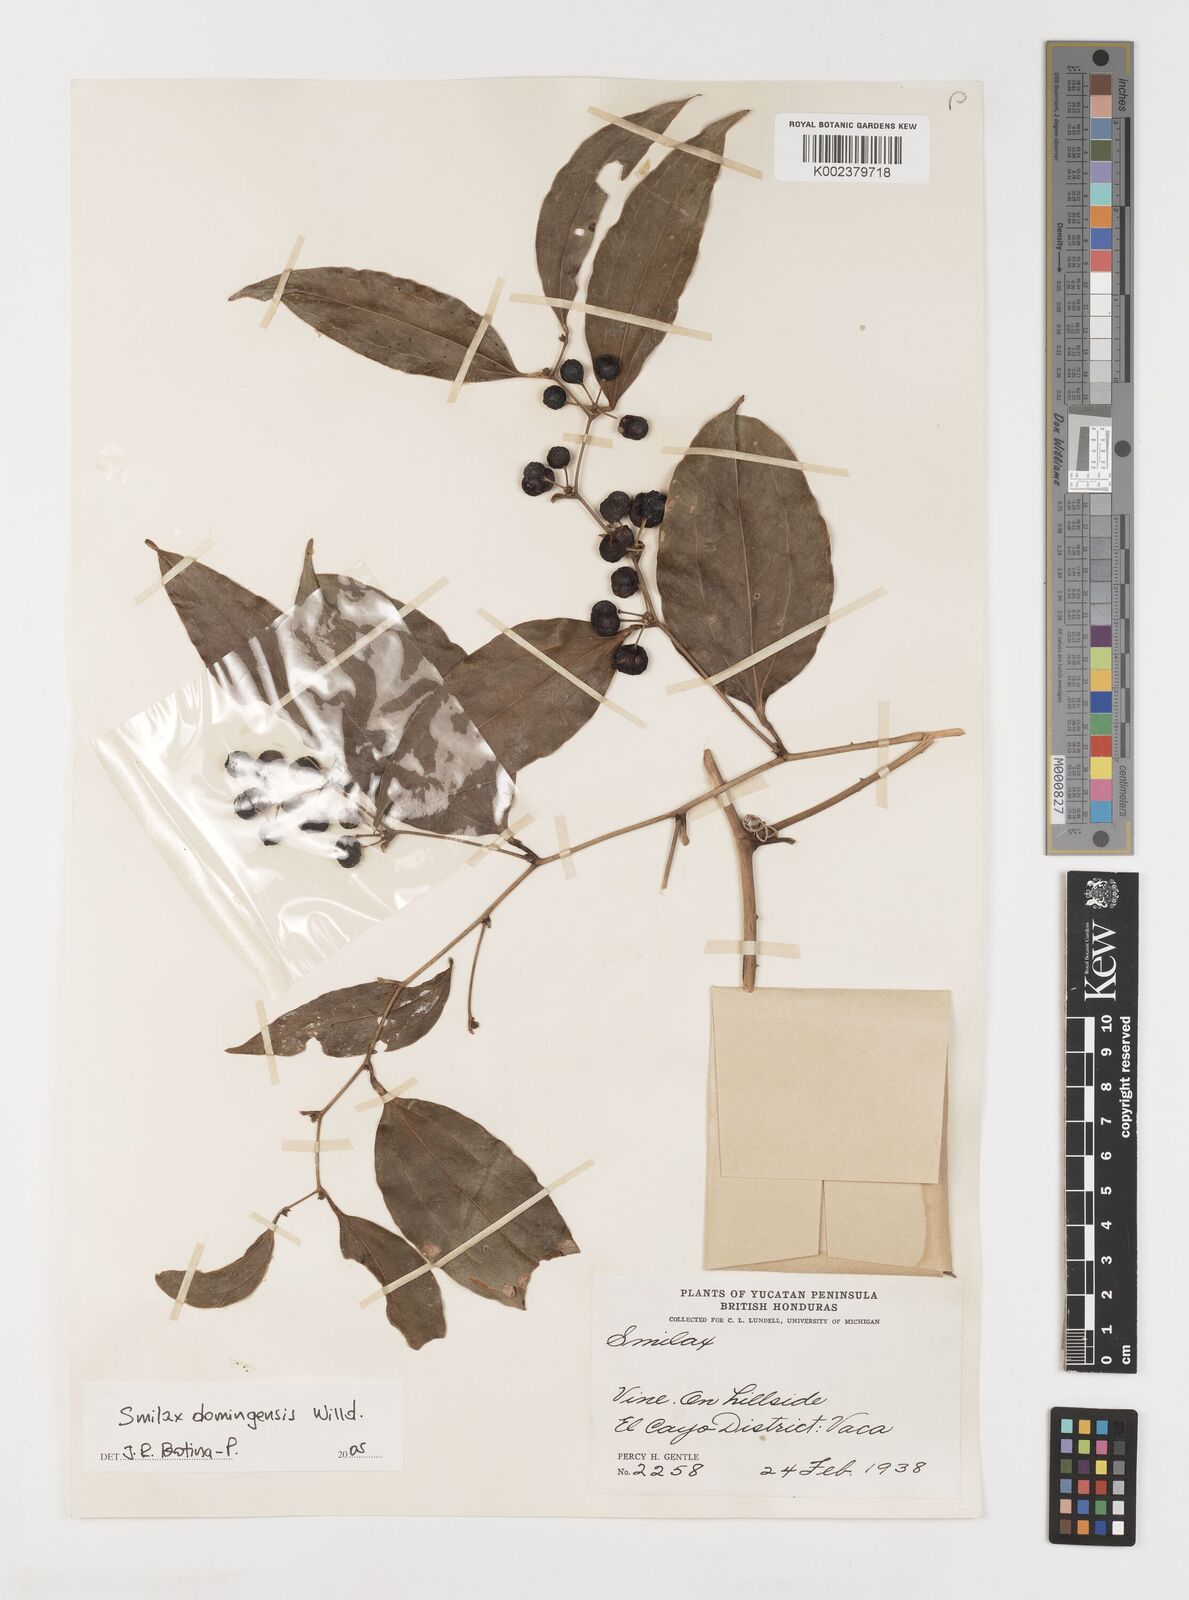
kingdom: Plantae
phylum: Tracheophyta
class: Liliopsida
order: Liliales
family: Smilacaceae
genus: Smilax
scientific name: Smilax laurifolia
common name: Bamboovine
